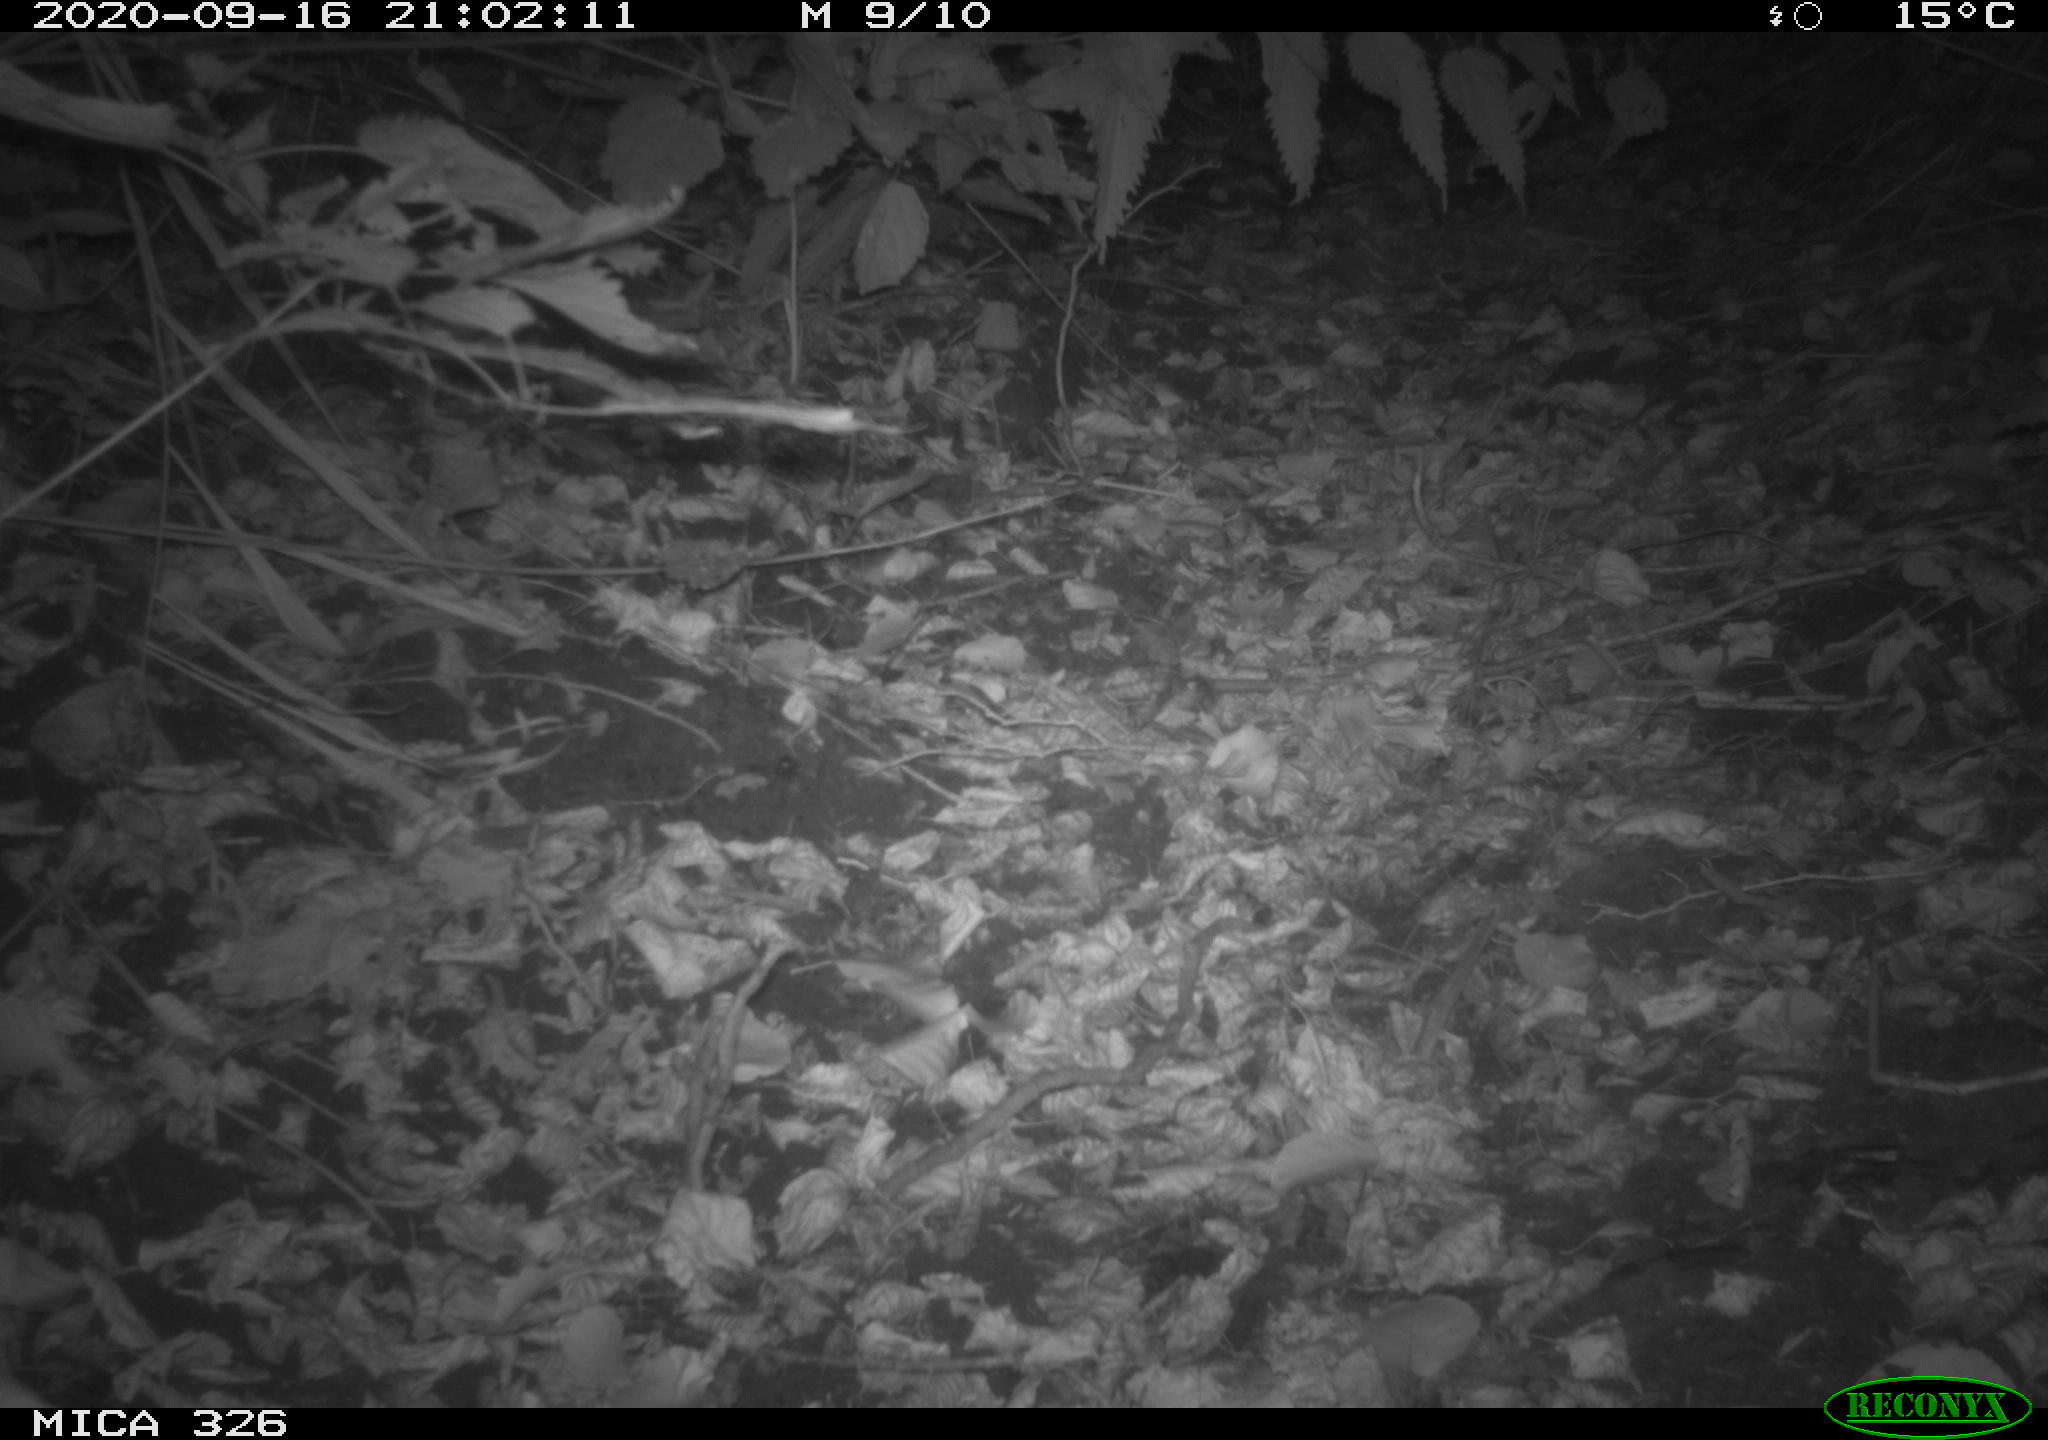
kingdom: Animalia
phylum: Chordata
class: Mammalia
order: Carnivora
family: Mustelidae
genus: Lutra
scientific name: Lutra lutra
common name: European otter
